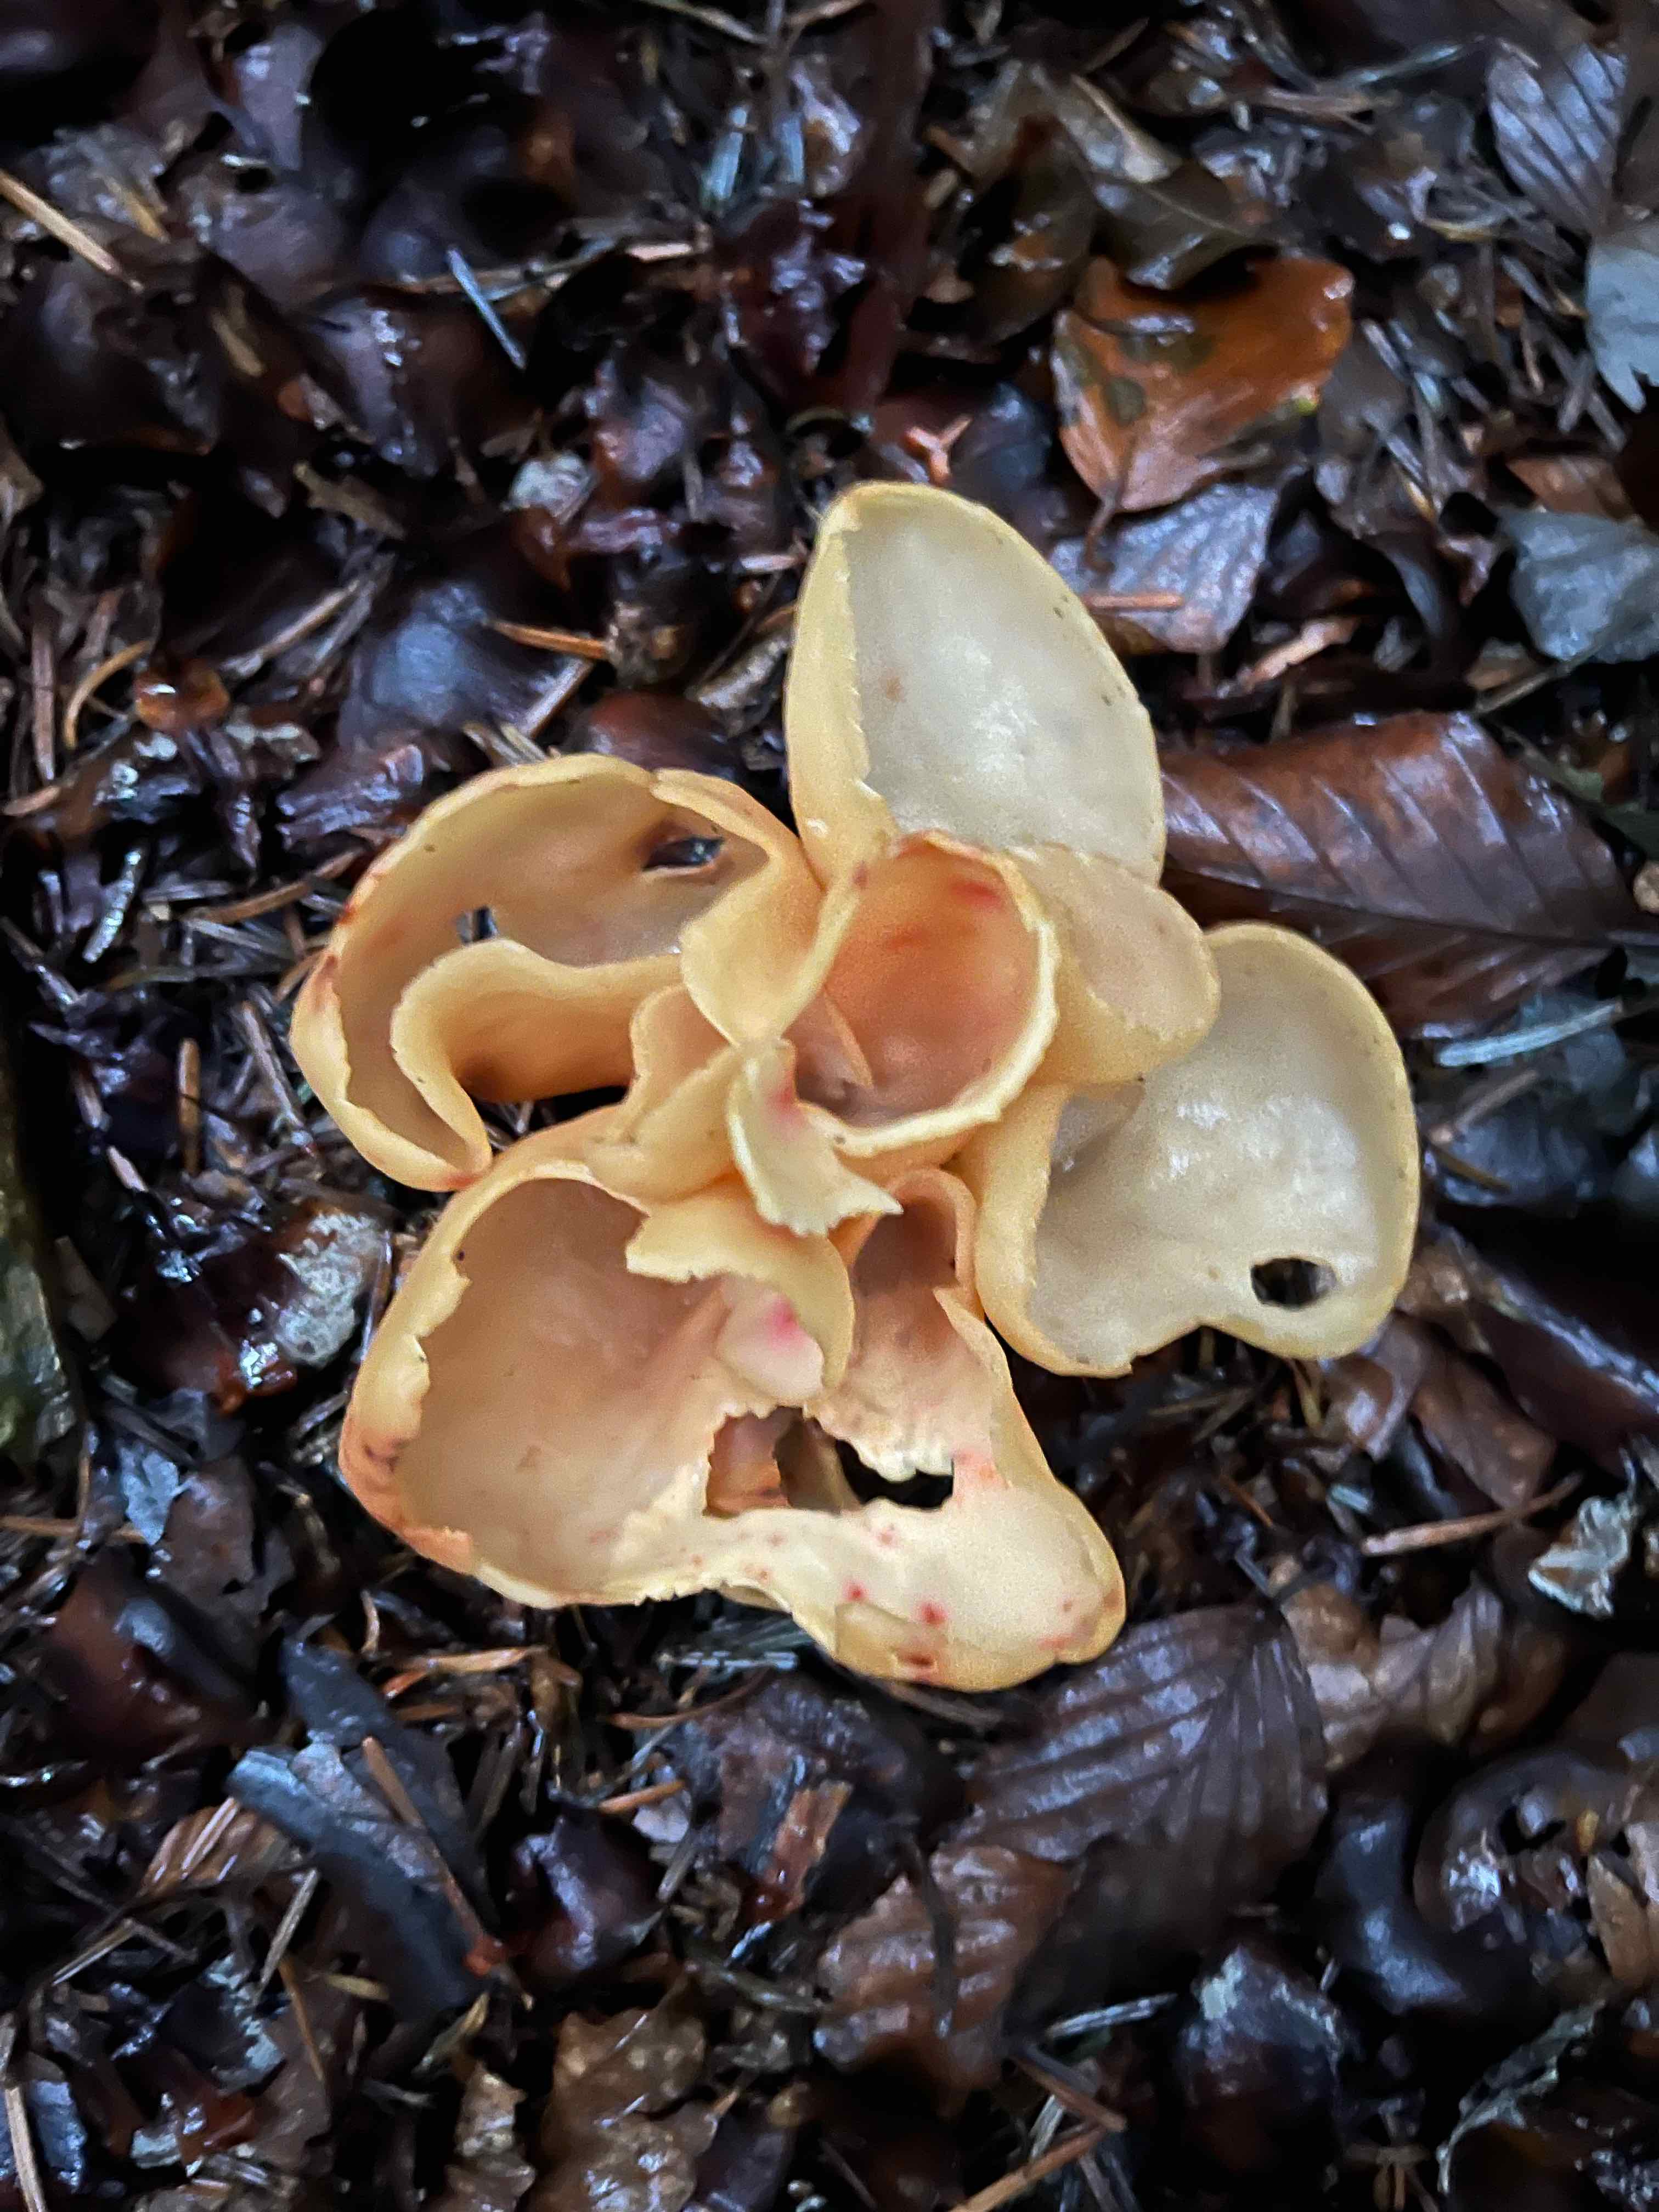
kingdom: Fungi
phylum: Ascomycota
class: Pezizomycetes
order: Pezizales
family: Otideaceae
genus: Otidea
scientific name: Otidea onotica
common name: æsel-ørebæger
